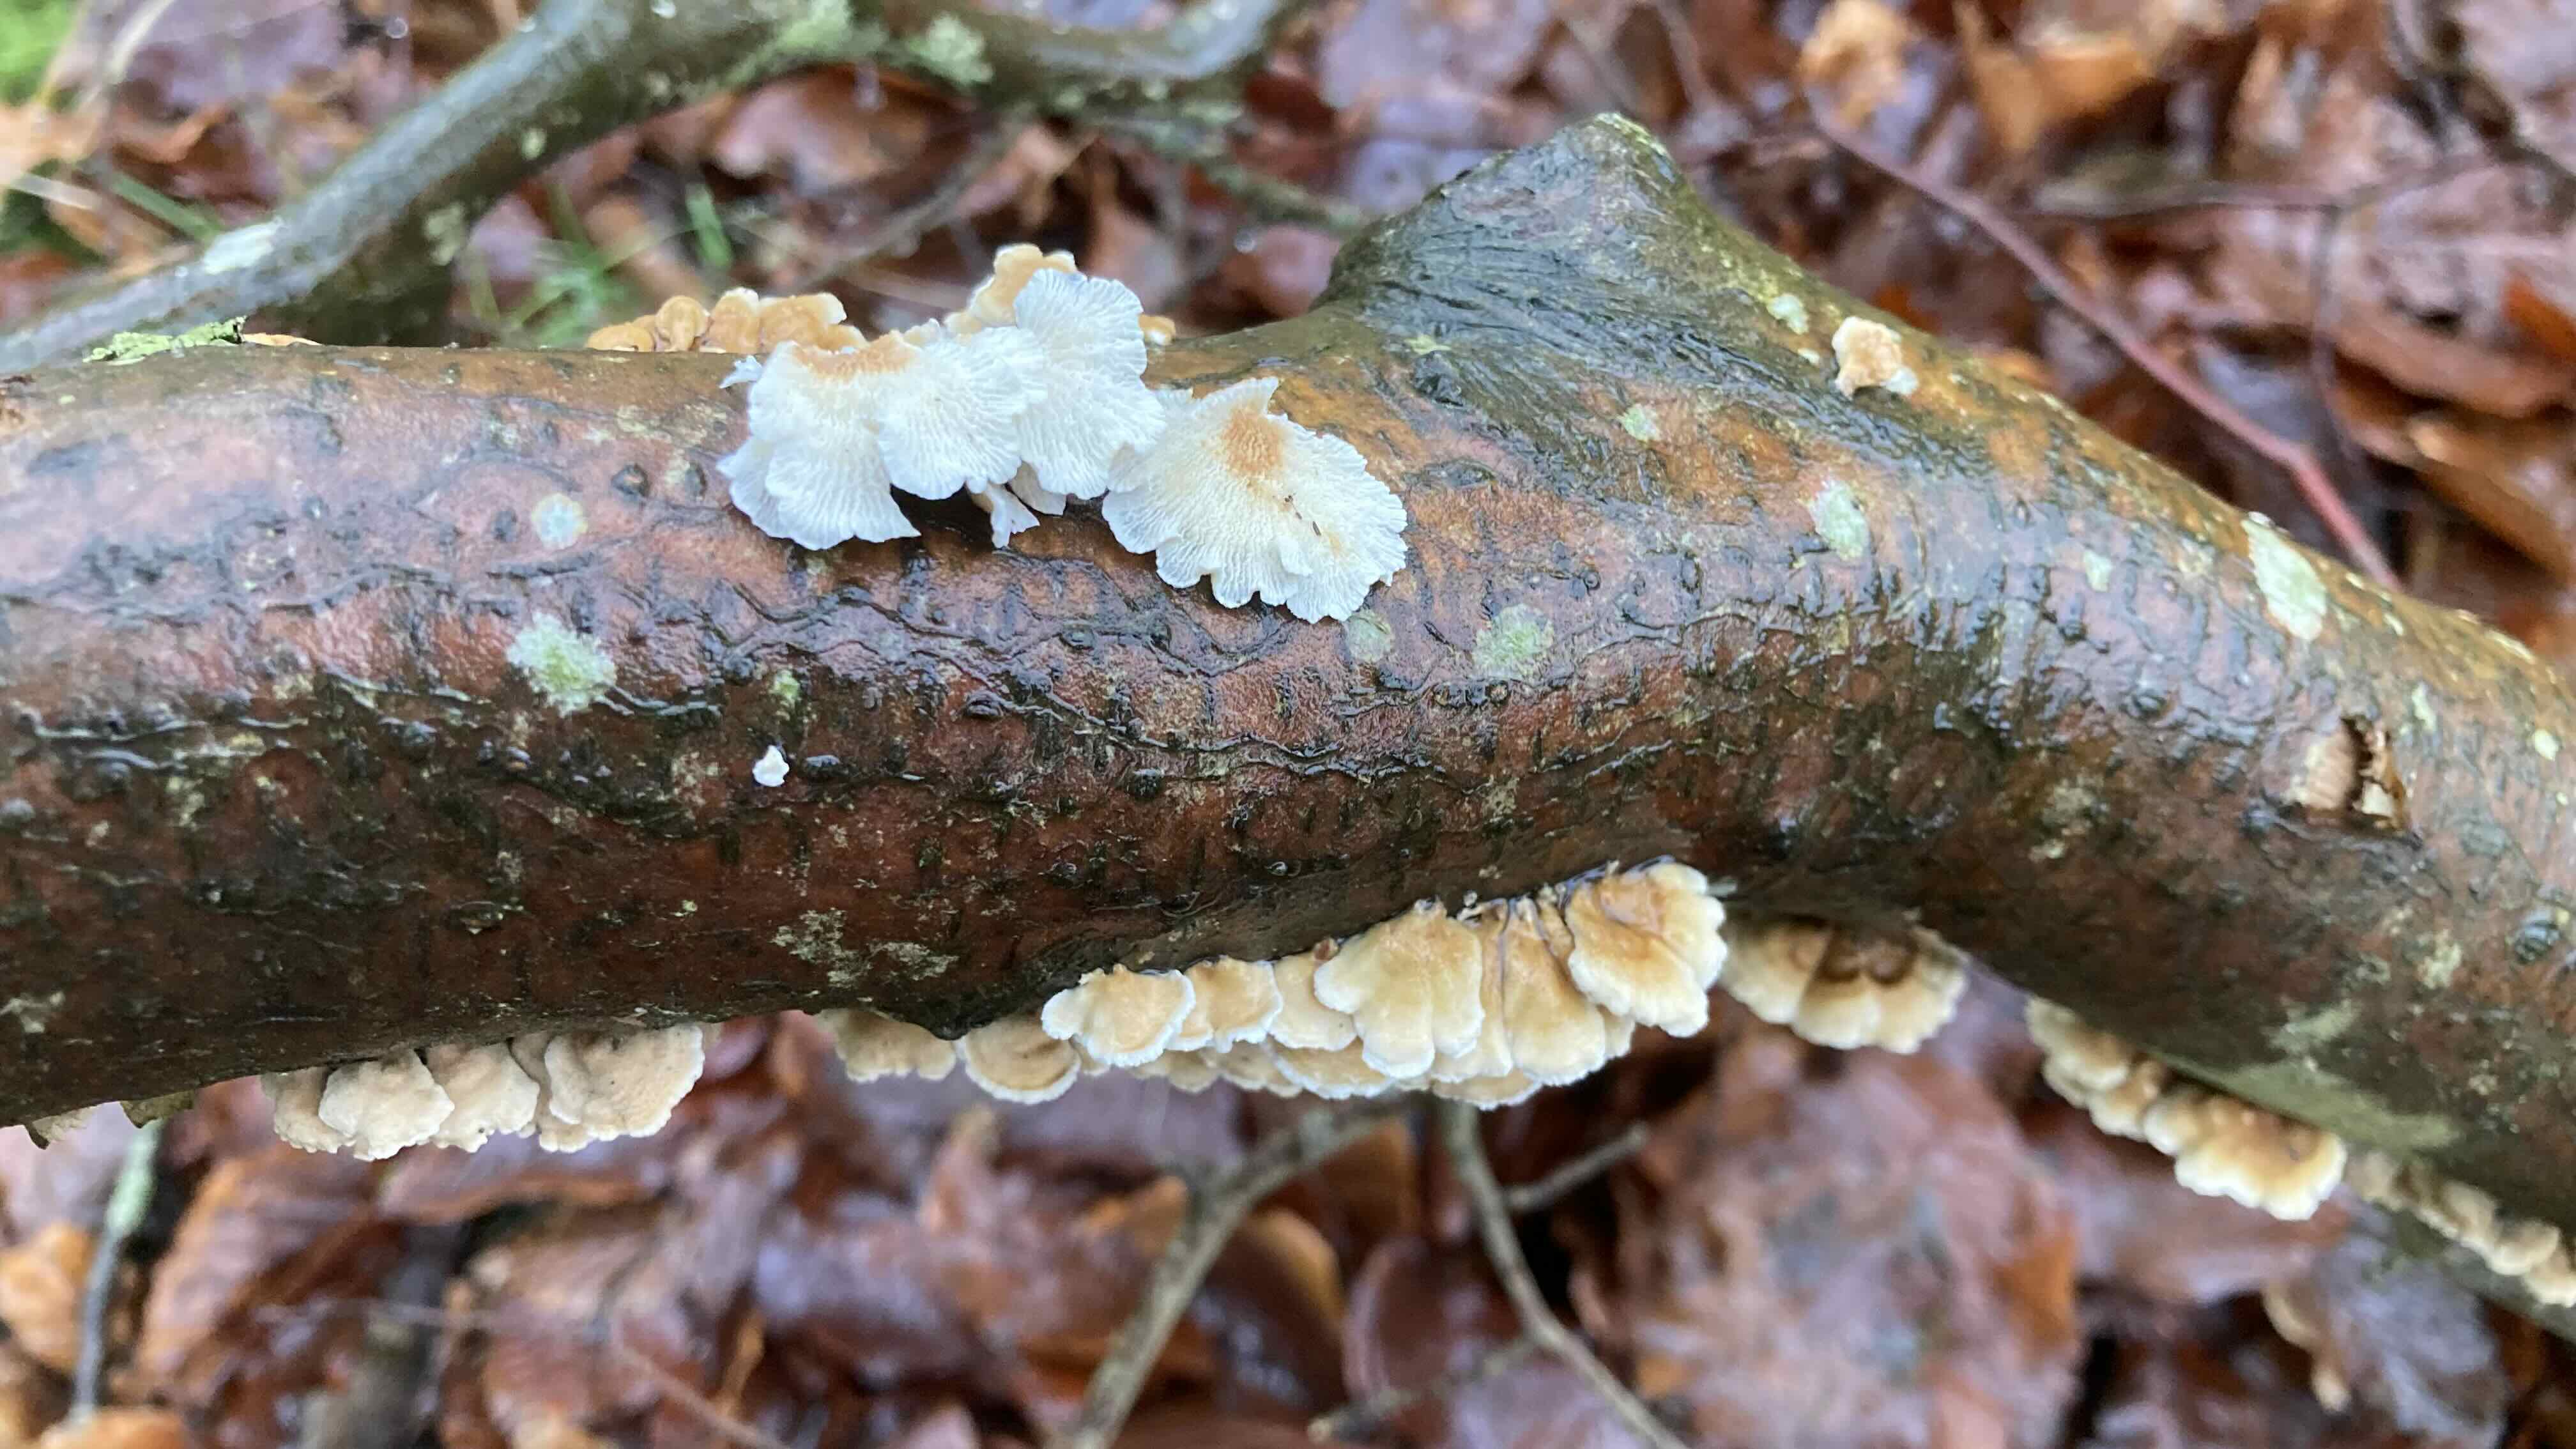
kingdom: Fungi
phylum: Basidiomycota
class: Agaricomycetes
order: Amylocorticiales
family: Amylocorticiaceae
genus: Plicaturopsis
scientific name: Plicaturopsis crispa
